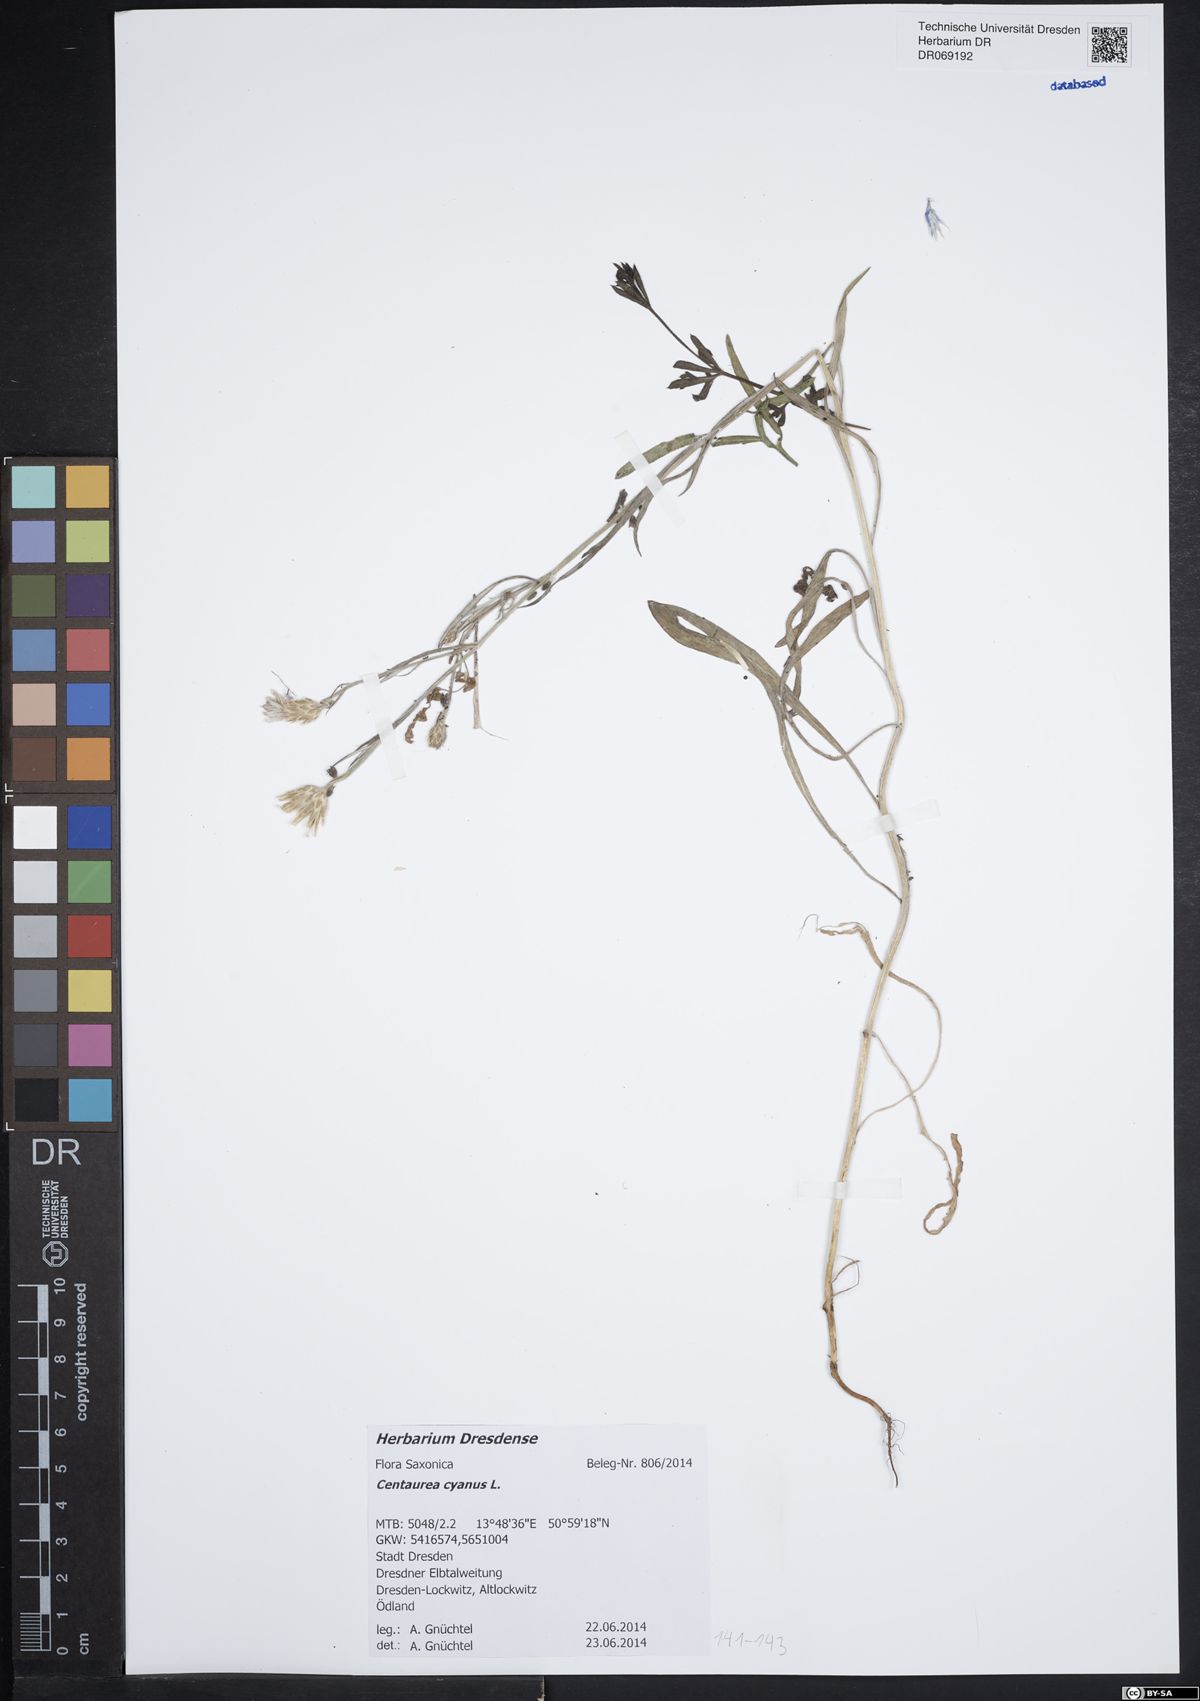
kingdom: Plantae
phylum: Tracheophyta
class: Magnoliopsida
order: Asterales
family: Asteraceae
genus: Centaurea
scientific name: Centaurea cyanus
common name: Cornflower
